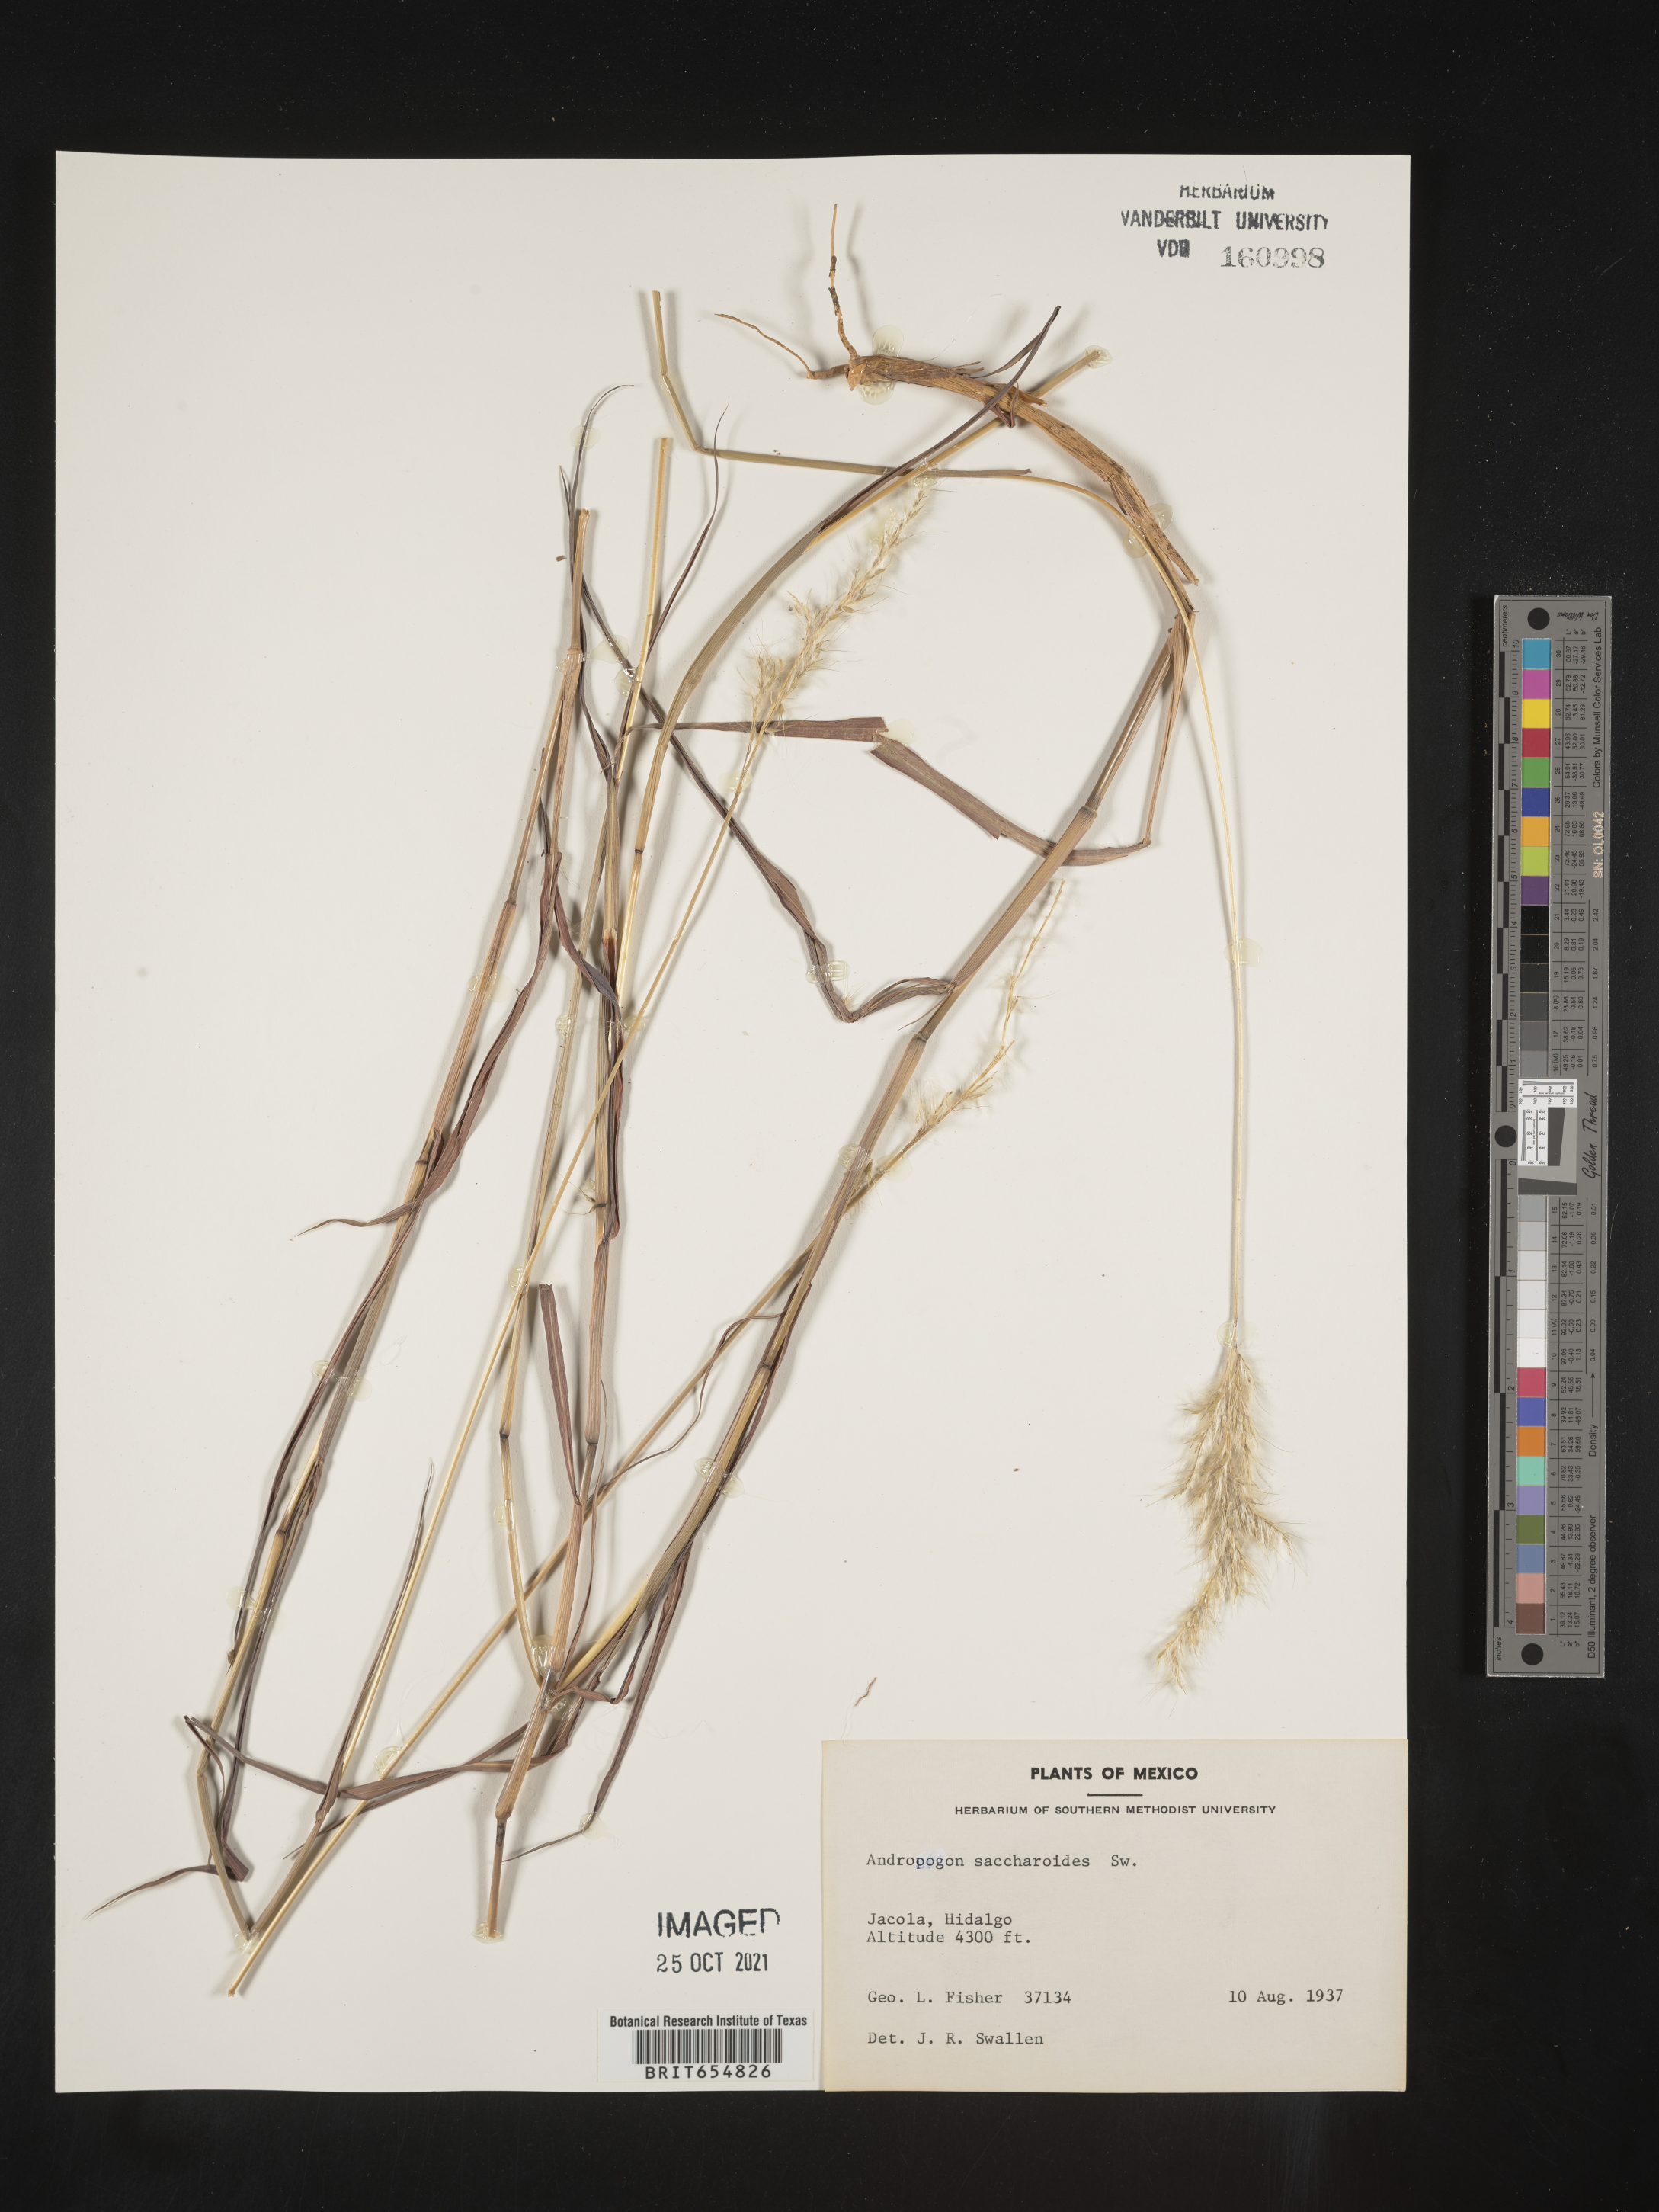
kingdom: Plantae
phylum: Tracheophyta
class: Liliopsida
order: Poales
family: Poaceae
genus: Andropogon
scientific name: Andropogon
